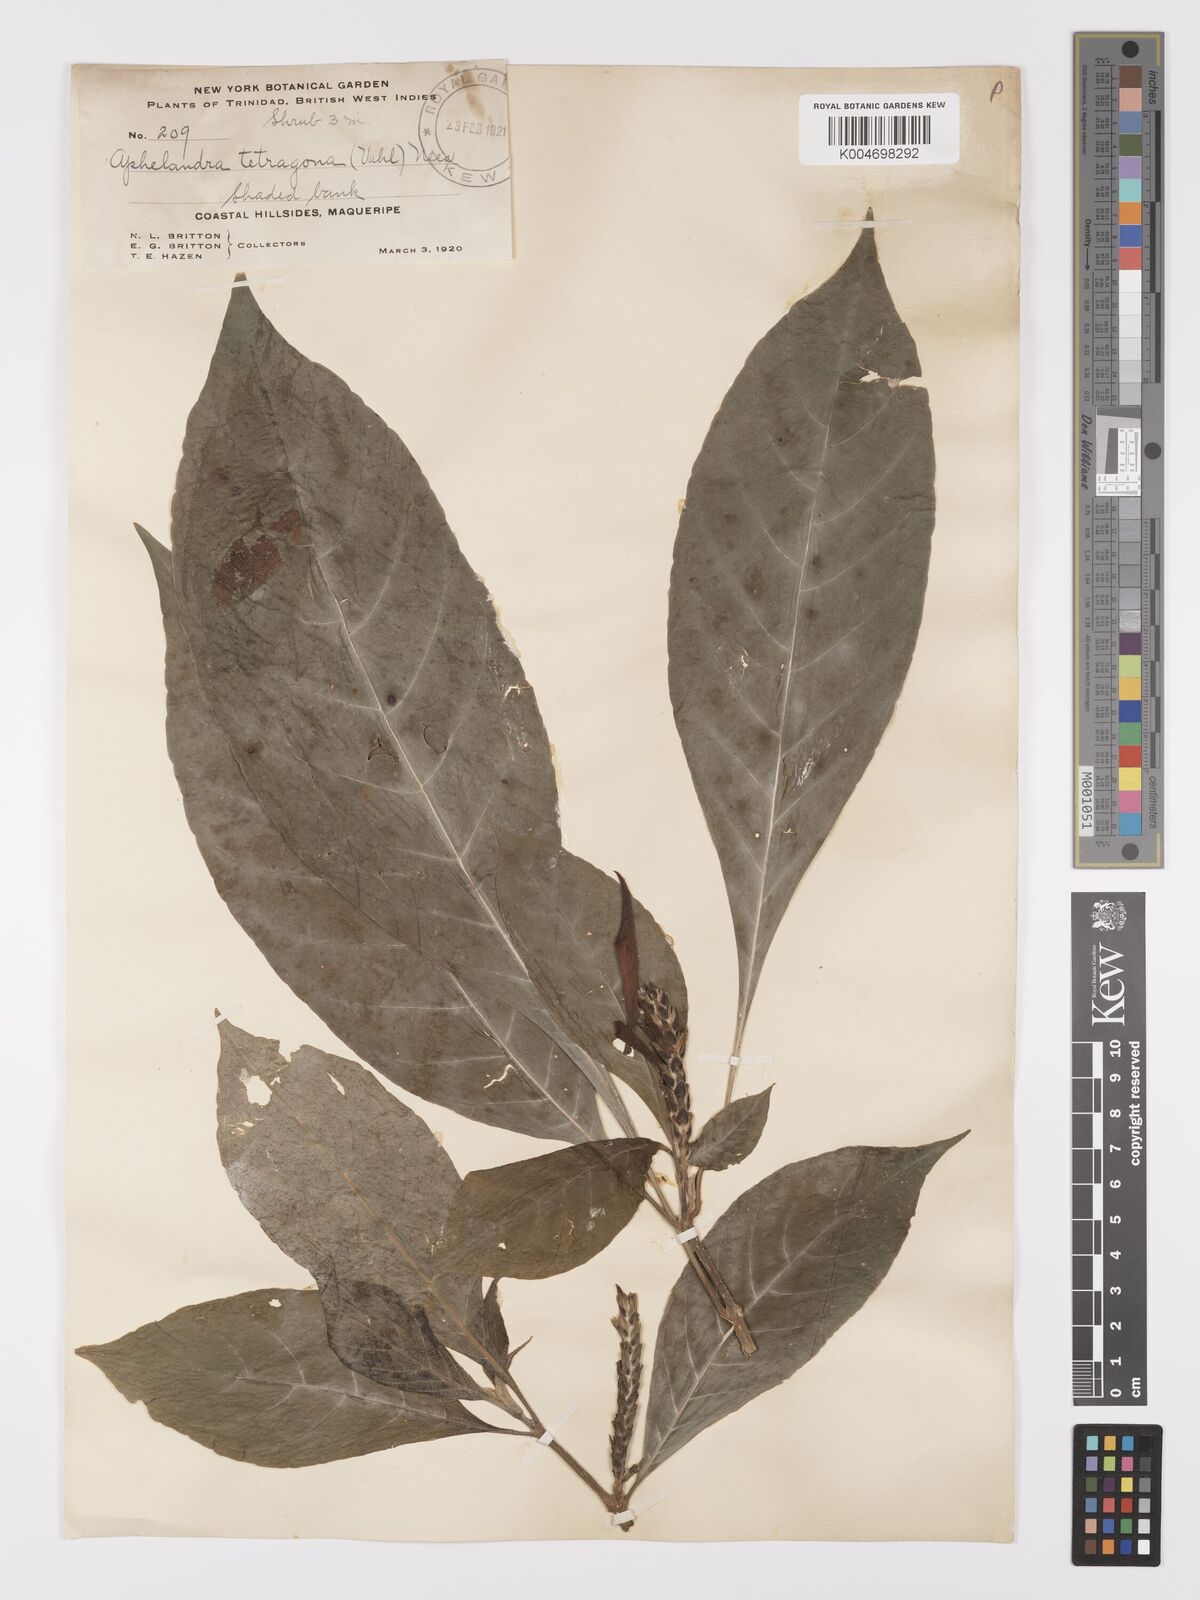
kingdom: Plantae
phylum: Tracheophyta
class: Magnoliopsida
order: Lamiales
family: Acanthaceae
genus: Aphelandra
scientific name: Aphelandra arborea
